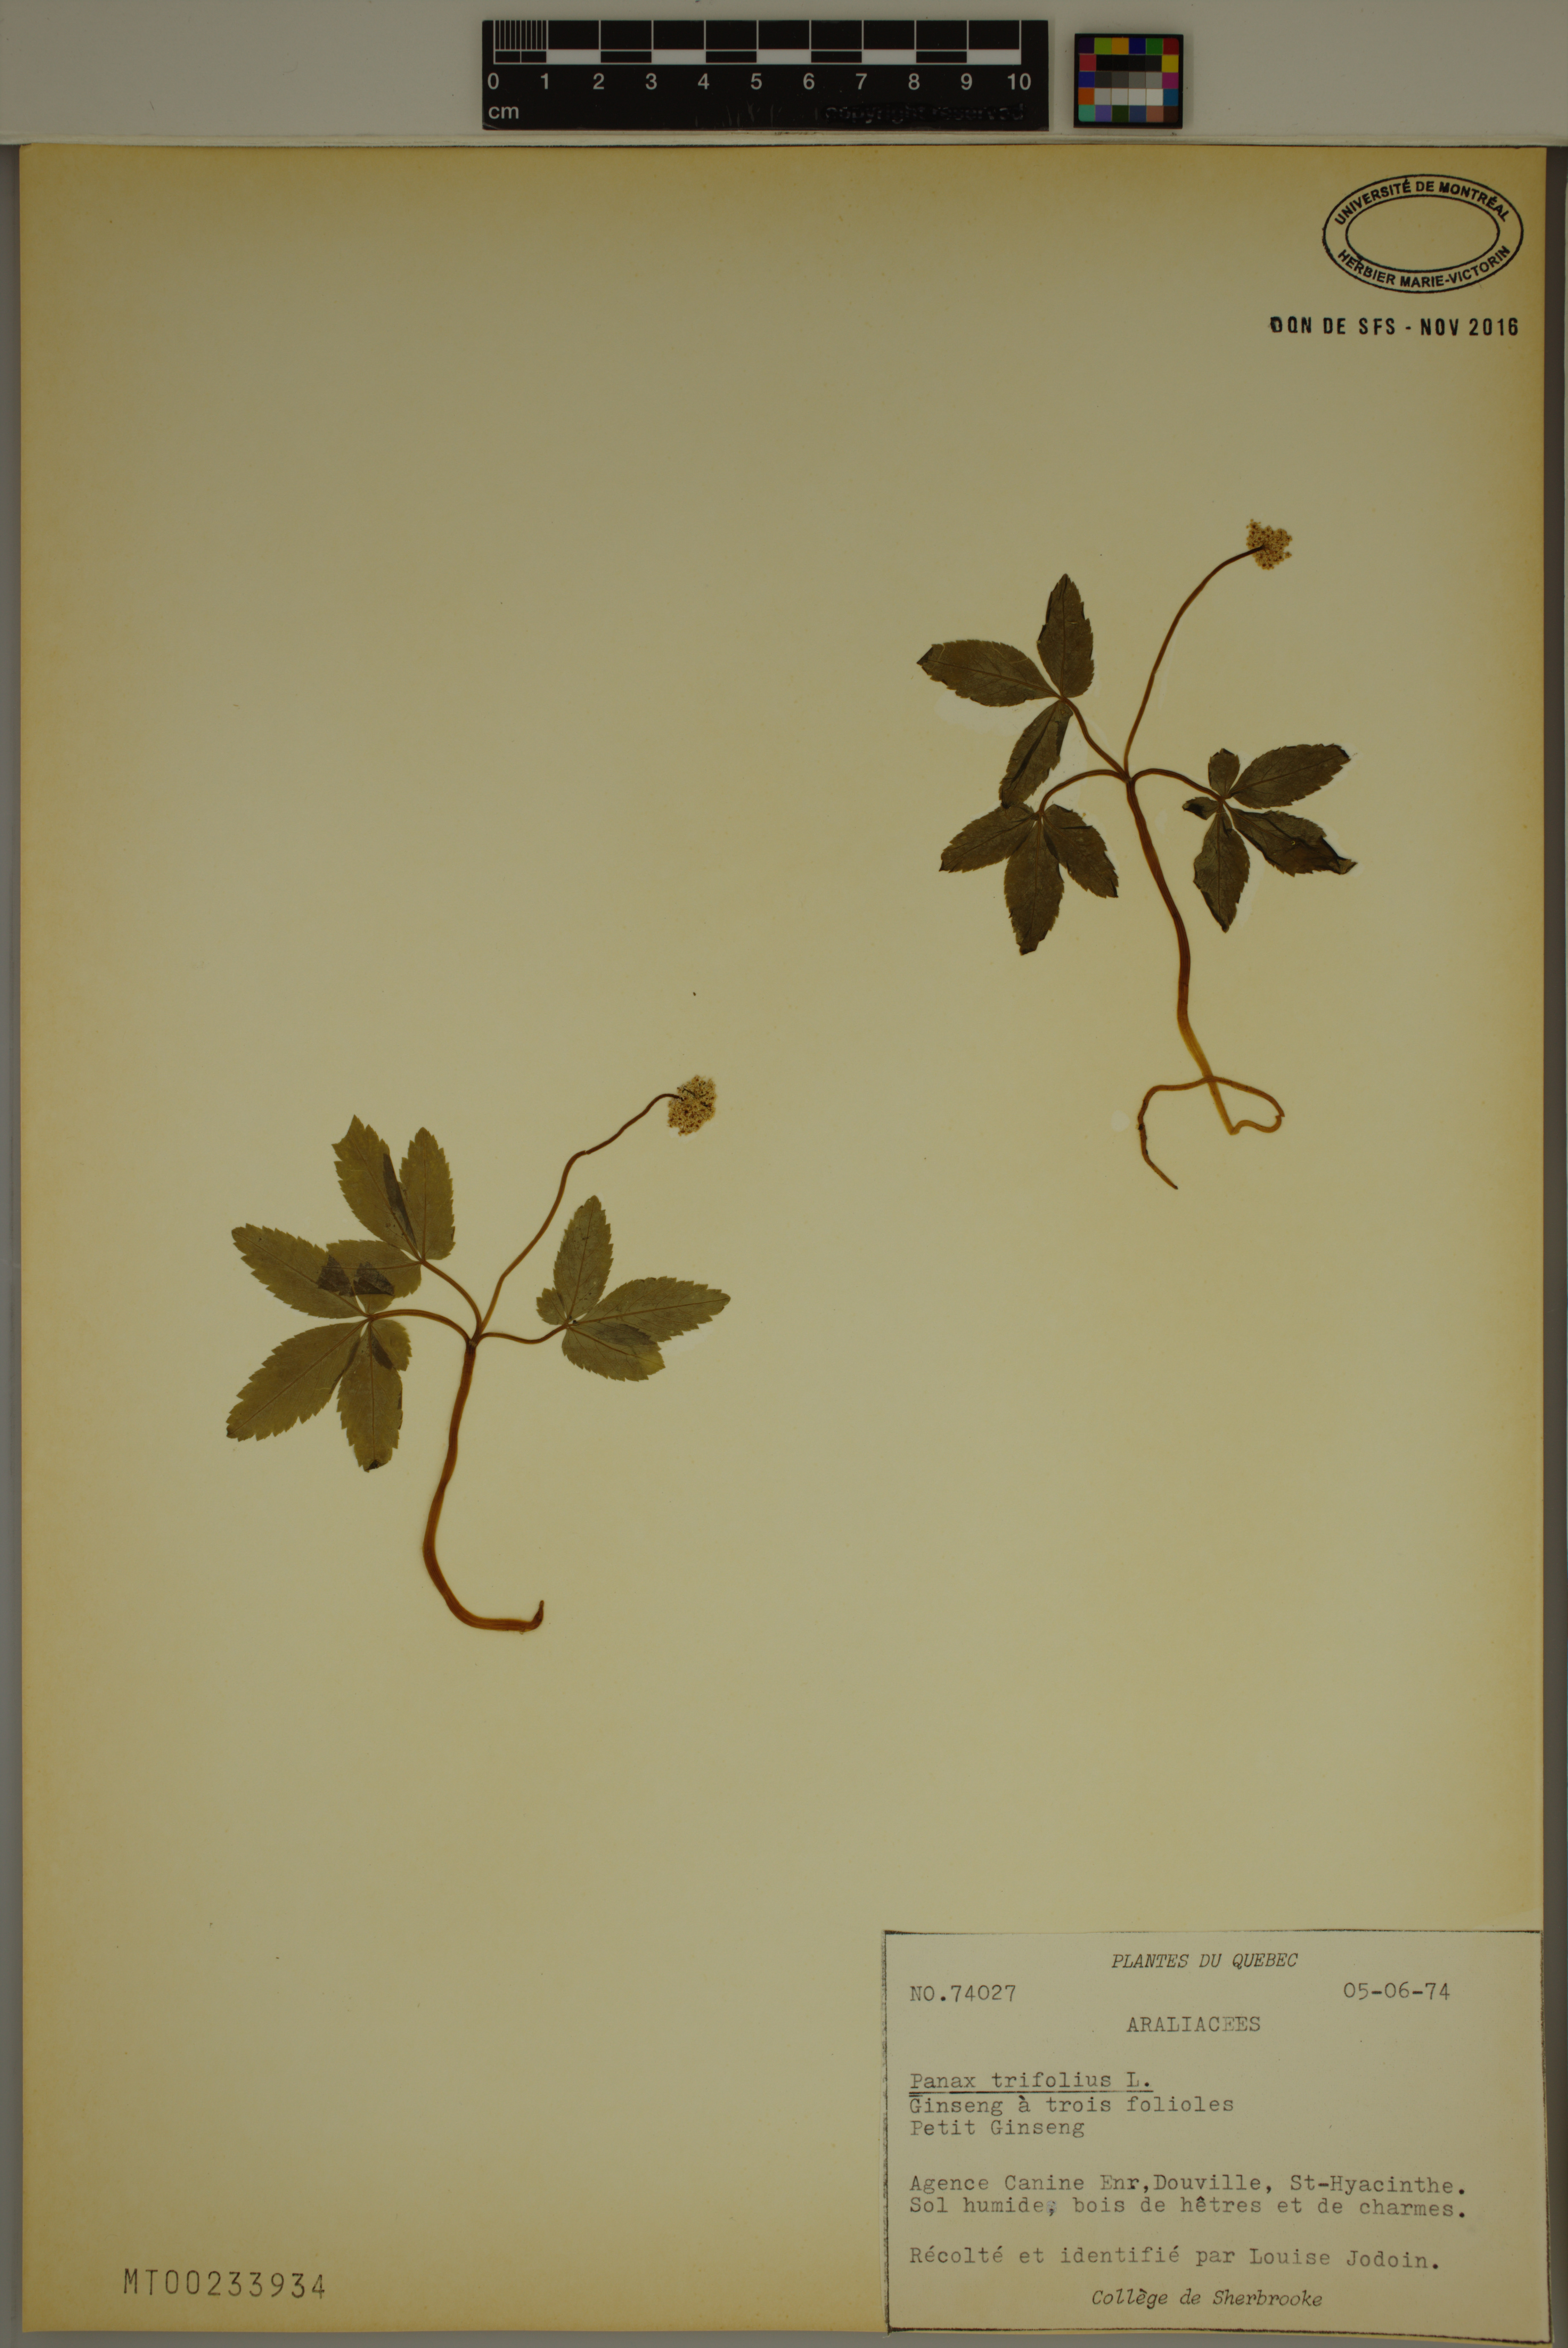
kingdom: Plantae
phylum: Tracheophyta
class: Magnoliopsida
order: Apiales
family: Araliaceae
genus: Panax
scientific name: Panax trifolius
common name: Dwarf ginseng
